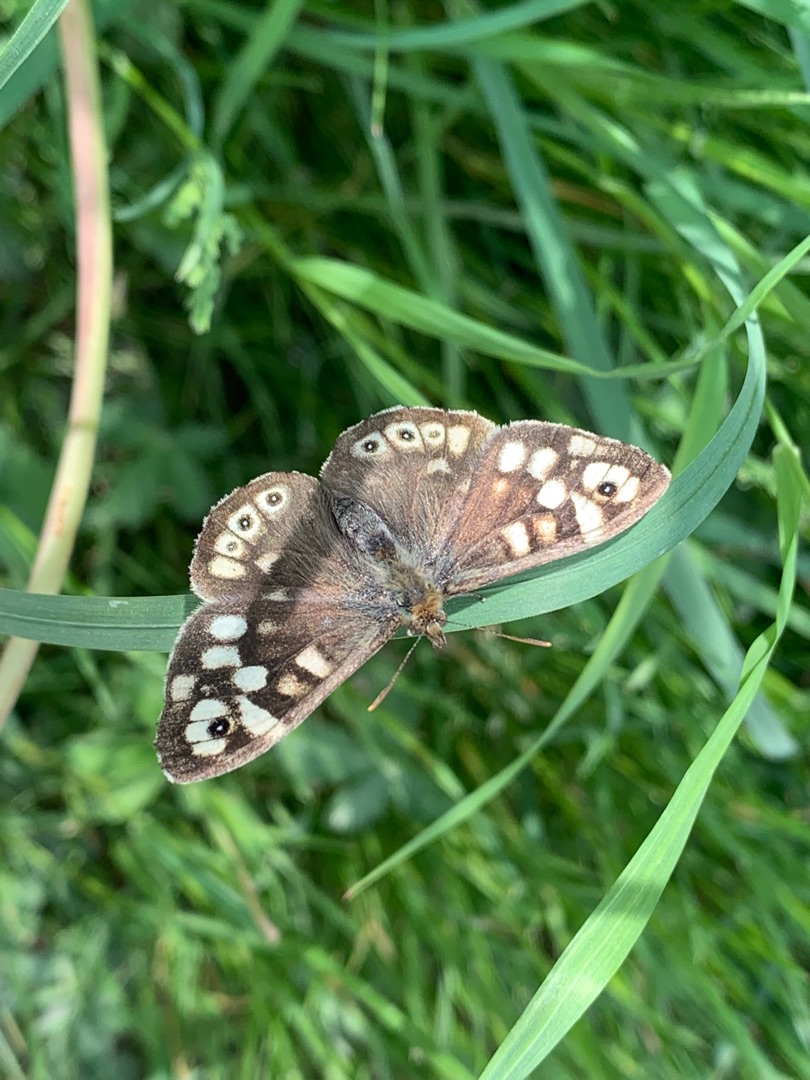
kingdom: Animalia
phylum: Arthropoda
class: Insecta
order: Lepidoptera
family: Nymphalidae
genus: Pararge
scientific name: Pararge aegeria
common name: Skovrandøje
